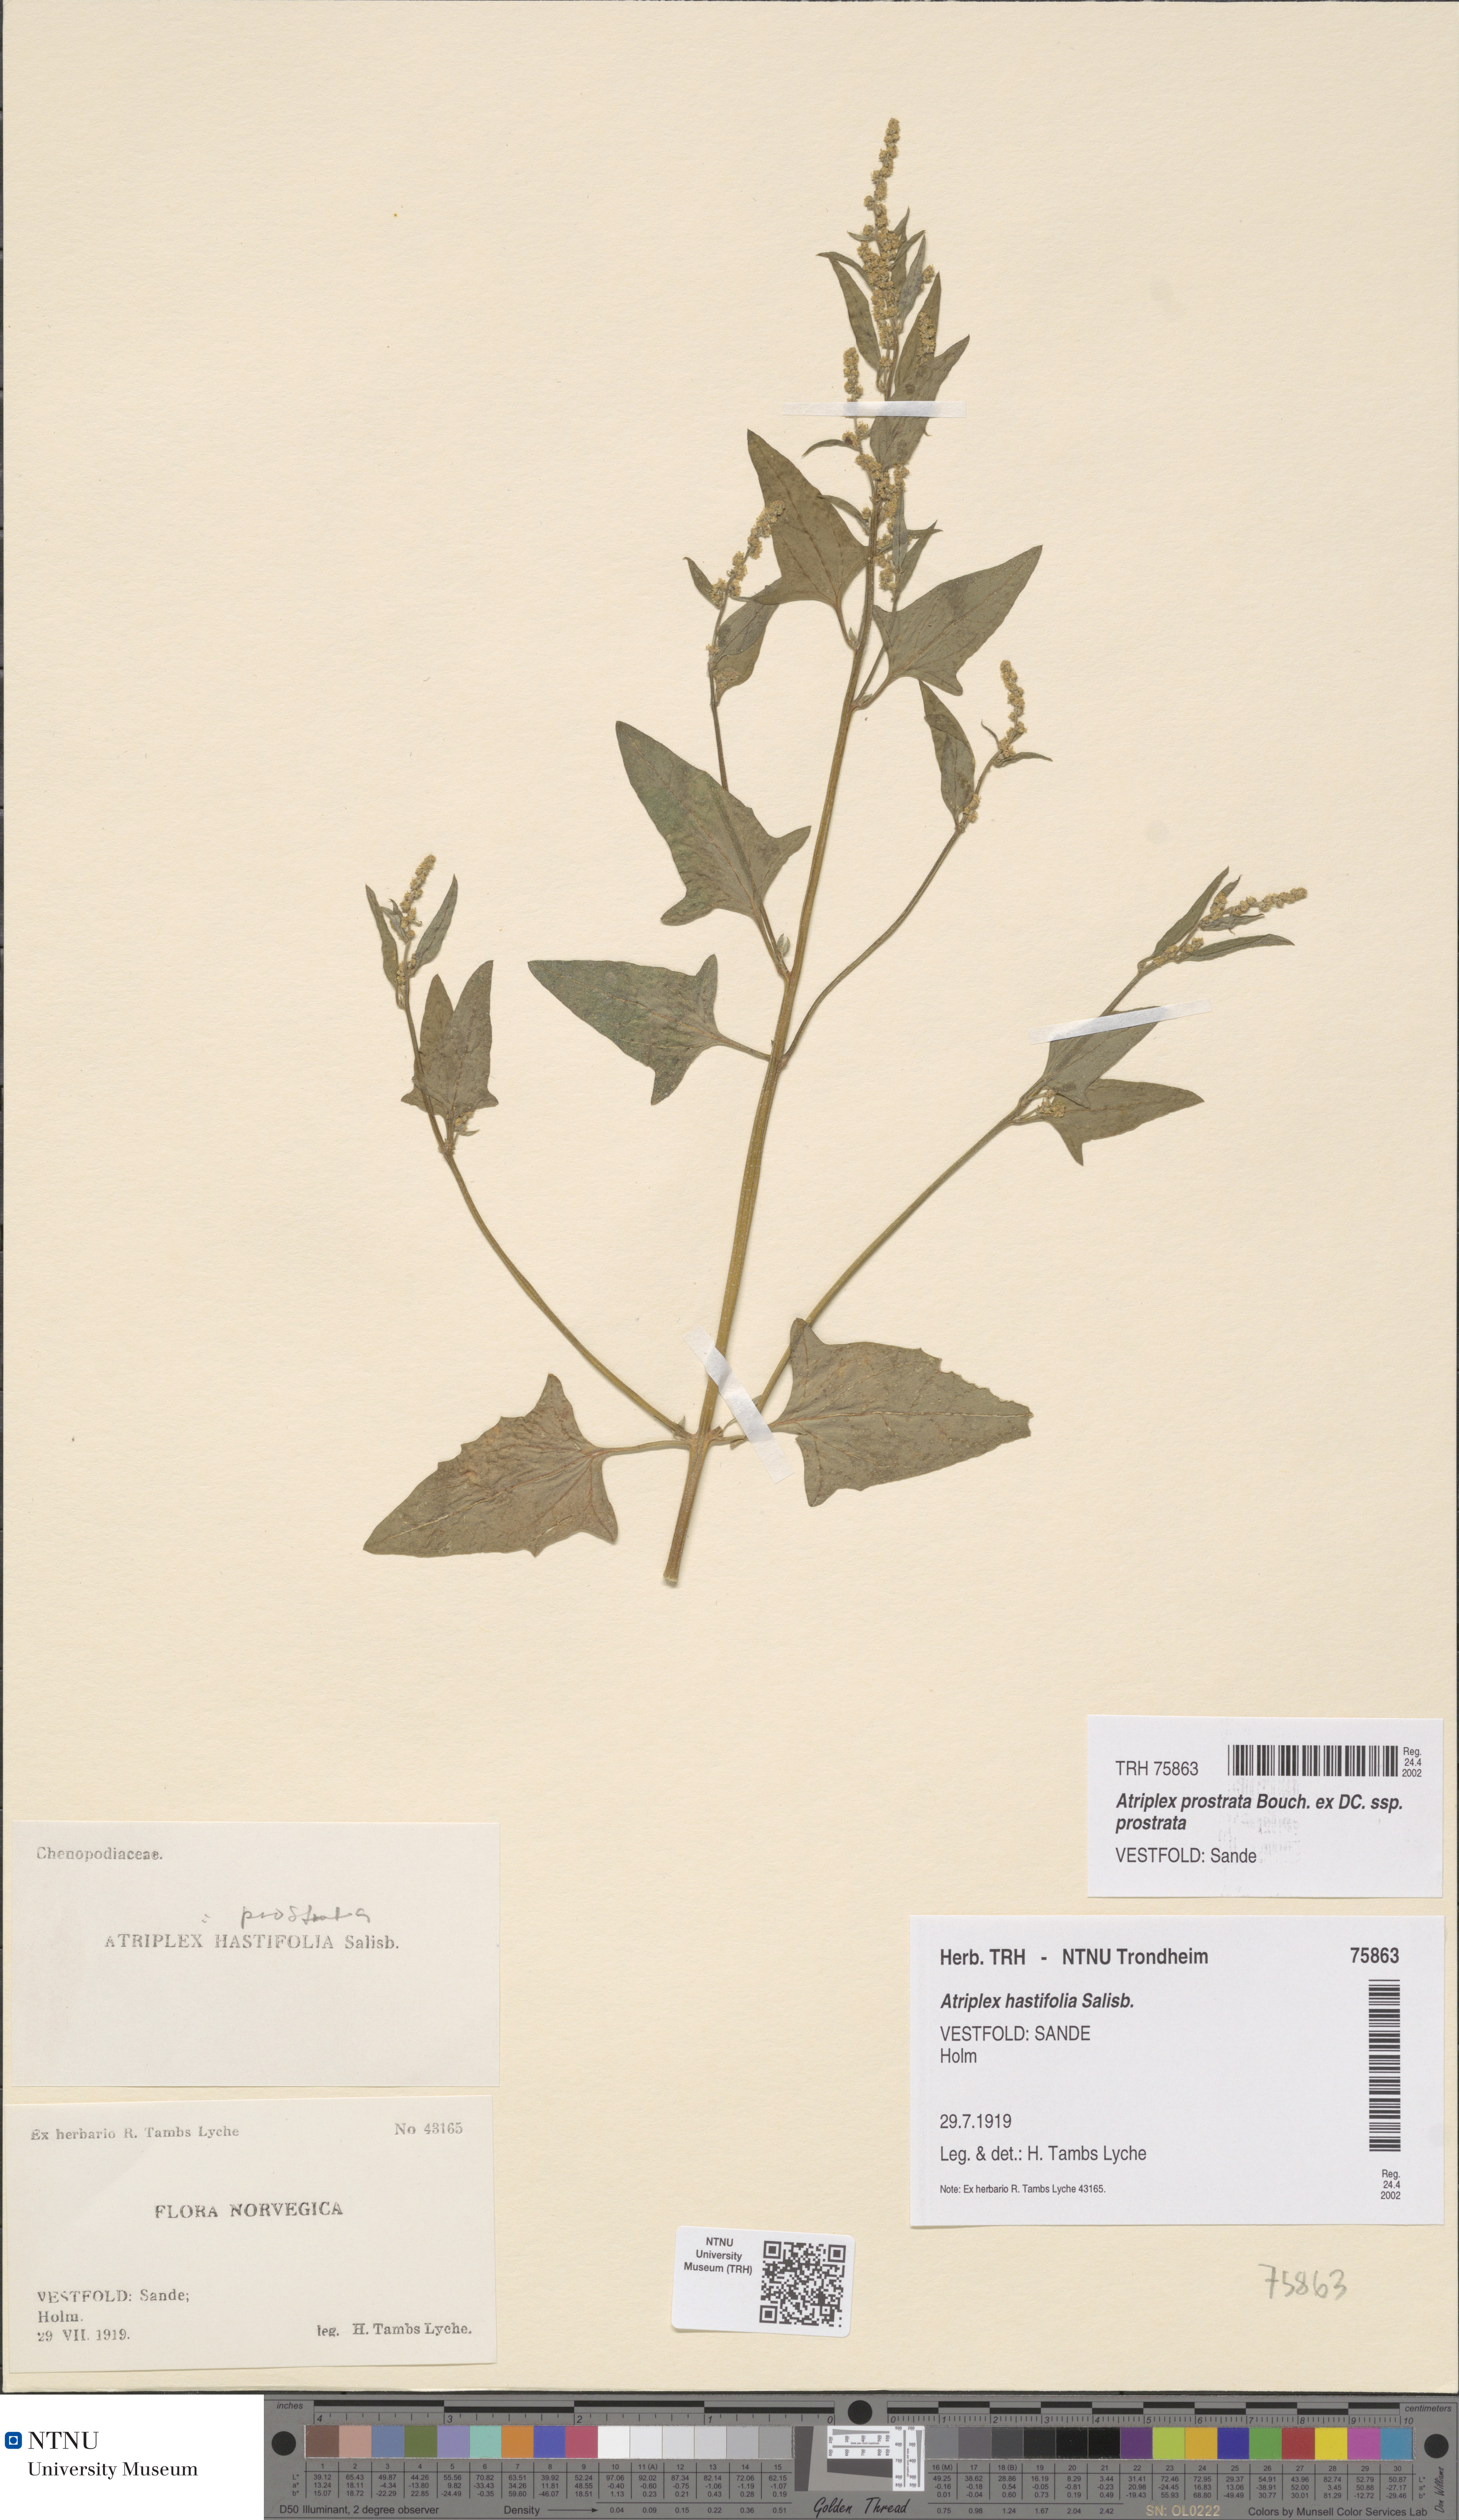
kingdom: Plantae
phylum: Tracheophyta
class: Magnoliopsida
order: Caryophyllales
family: Amaranthaceae
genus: Atriplex
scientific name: Atriplex prostrata
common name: Spear-leaved orache
